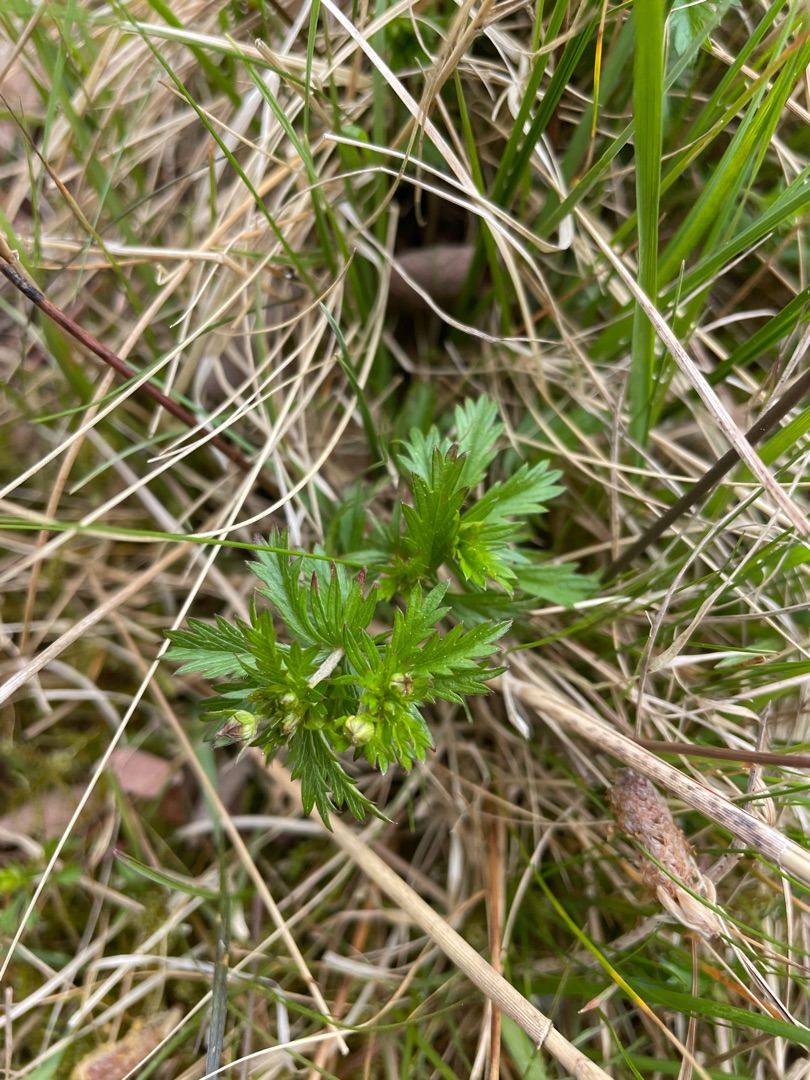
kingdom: Plantae
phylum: Tracheophyta
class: Magnoliopsida
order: Rosales
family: Rosaceae
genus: Potentilla
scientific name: Potentilla erecta
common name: Tormentil
